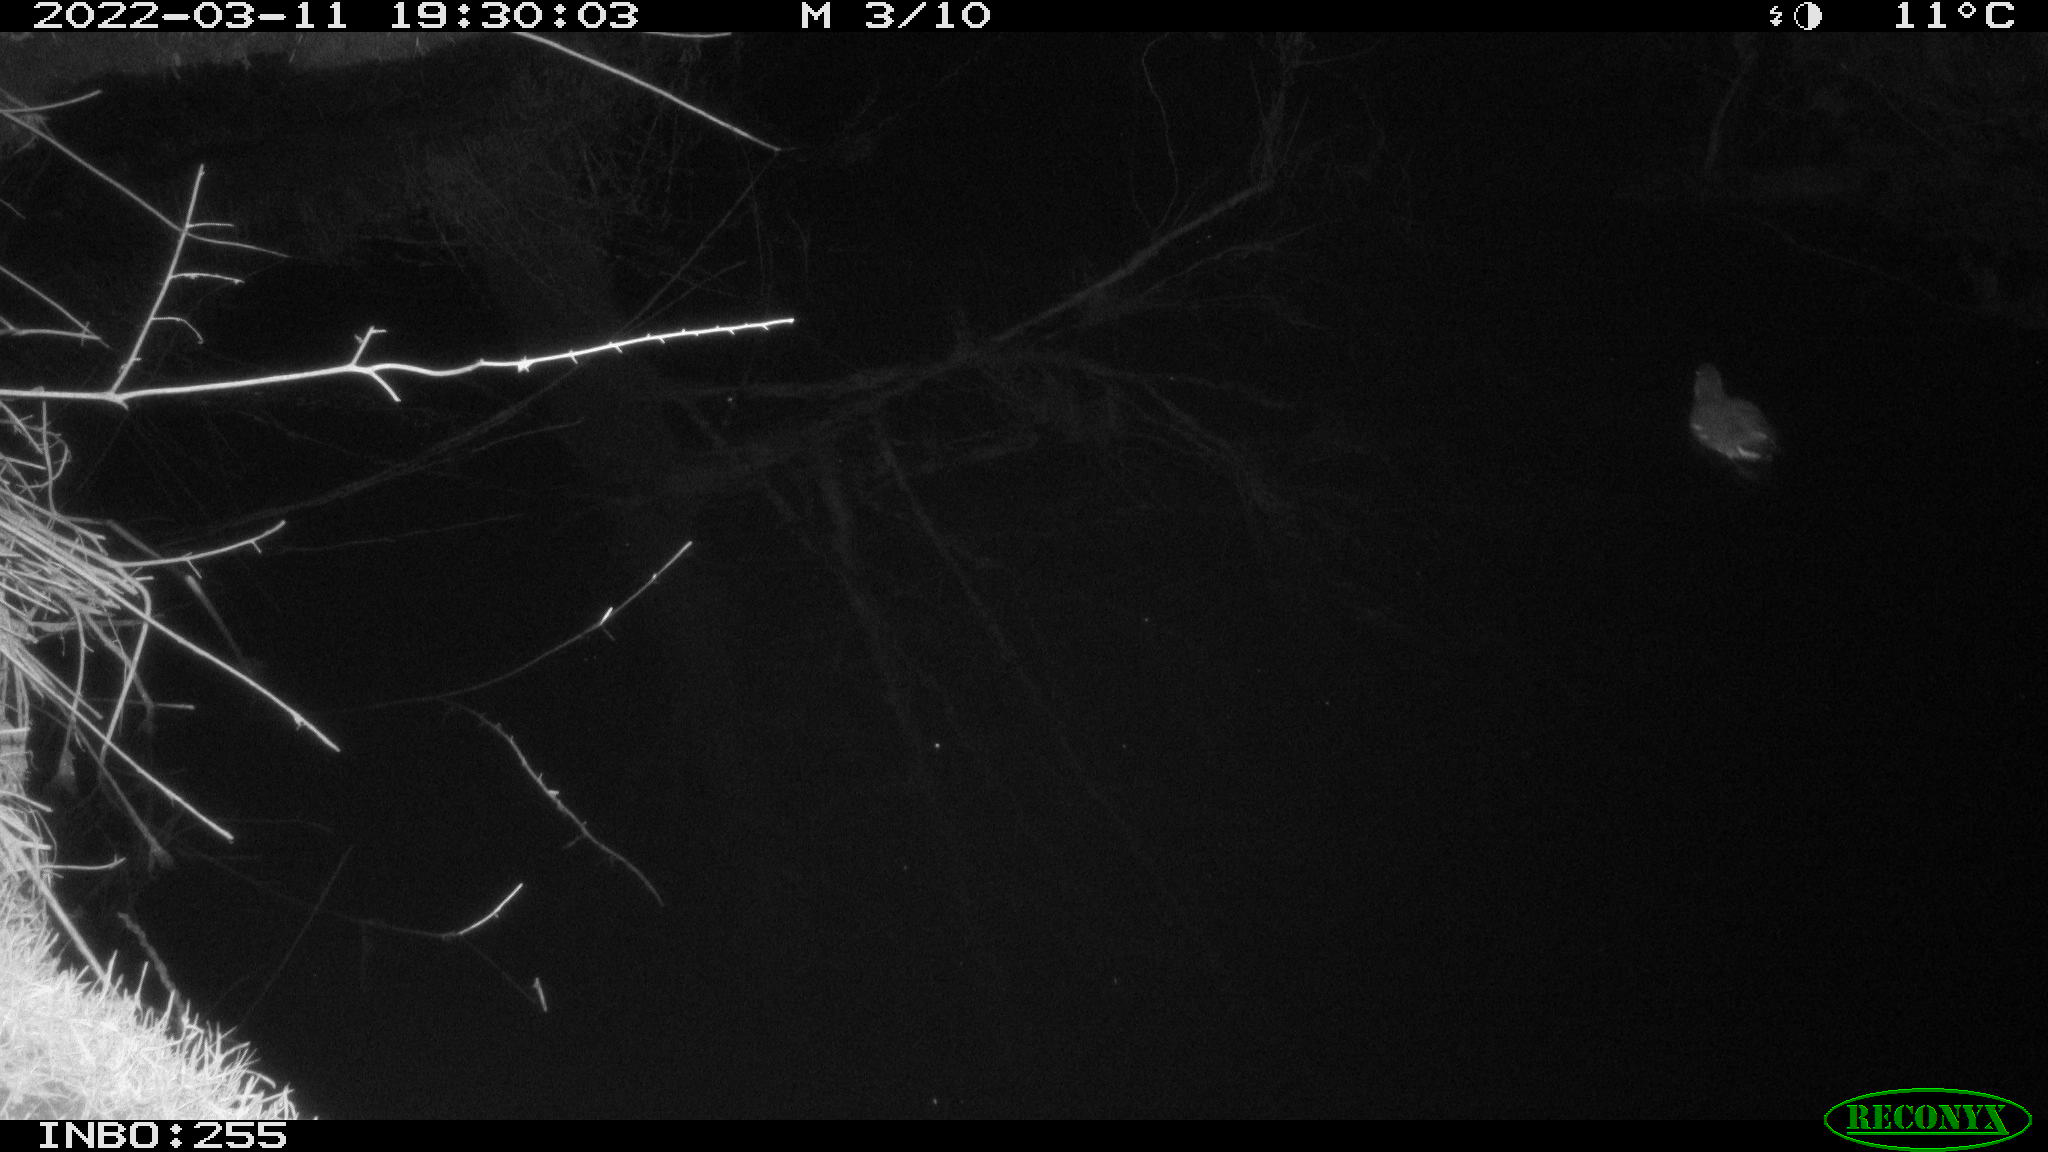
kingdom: Animalia
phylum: Chordata
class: Aves
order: Gruiformes
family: Rallidae
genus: Gallinula
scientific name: Gallinula chloropus
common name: Common moorhen
